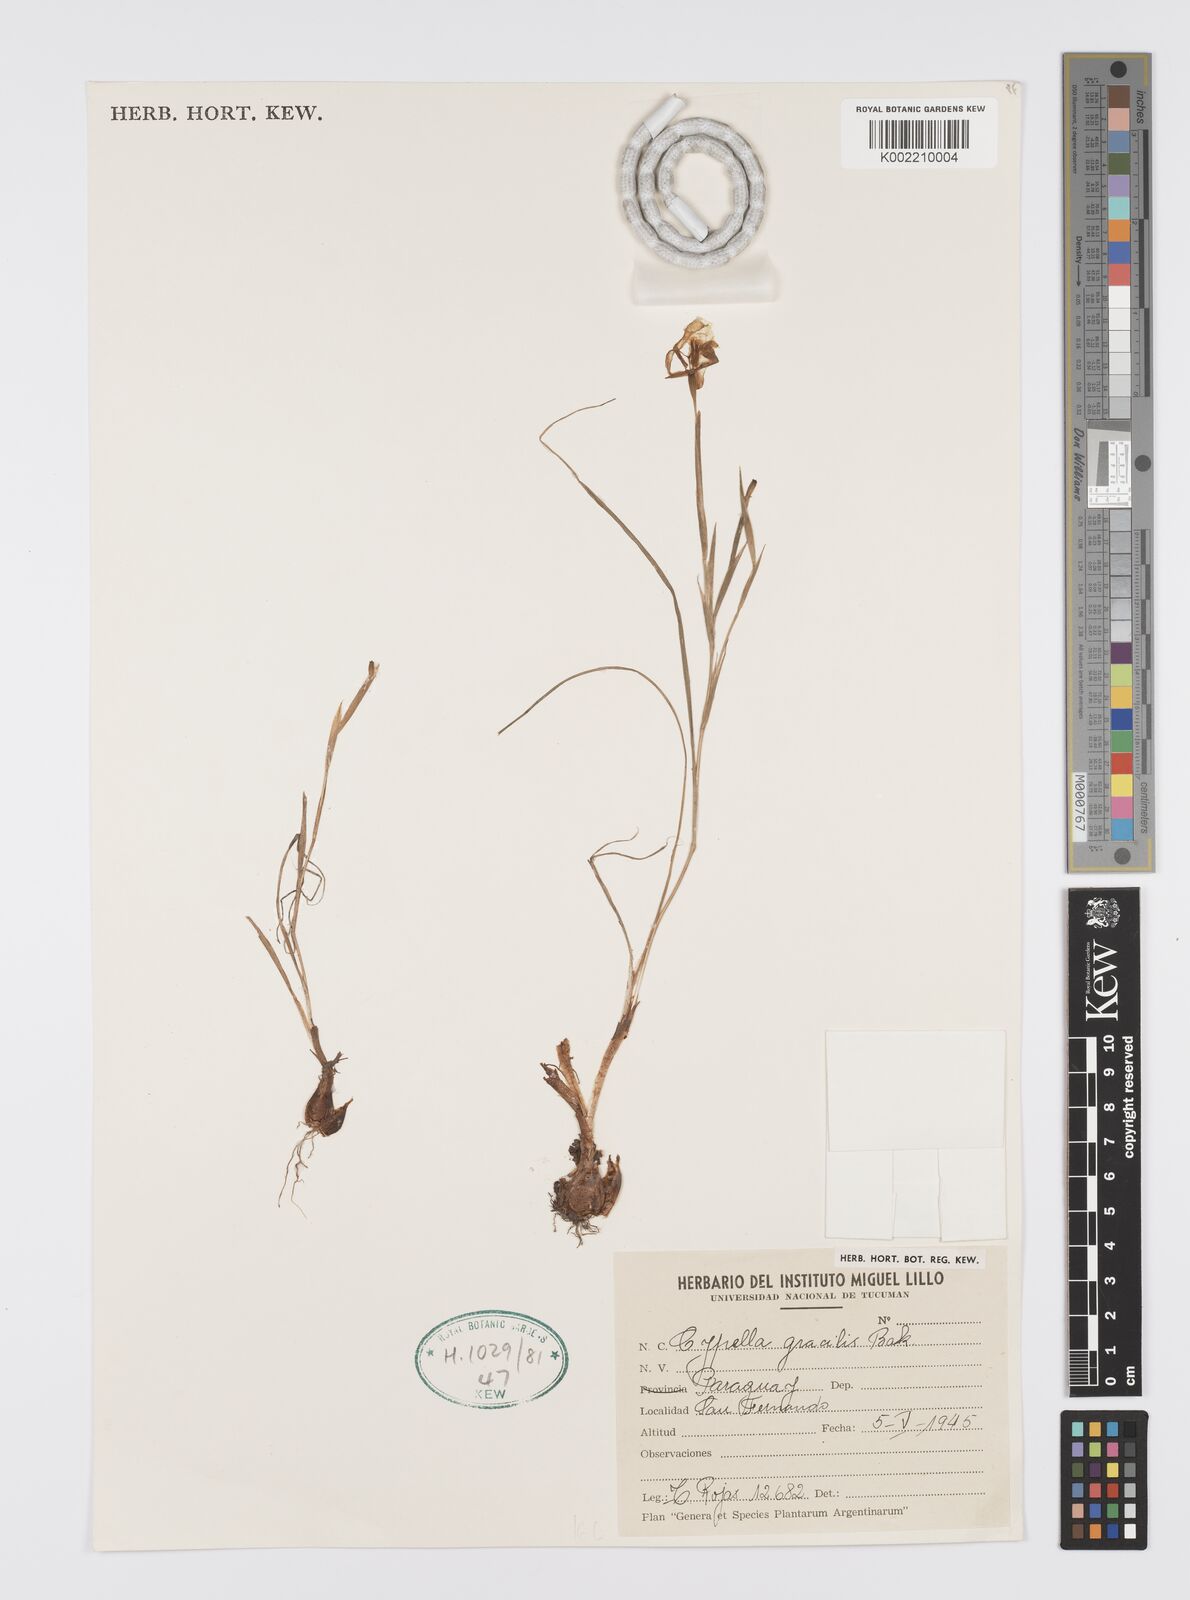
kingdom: Plantae
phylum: Tracheophyta
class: Liliopsida
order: Asparagales
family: Iridaceae
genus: Trimezia
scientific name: Trimezia gracilis
